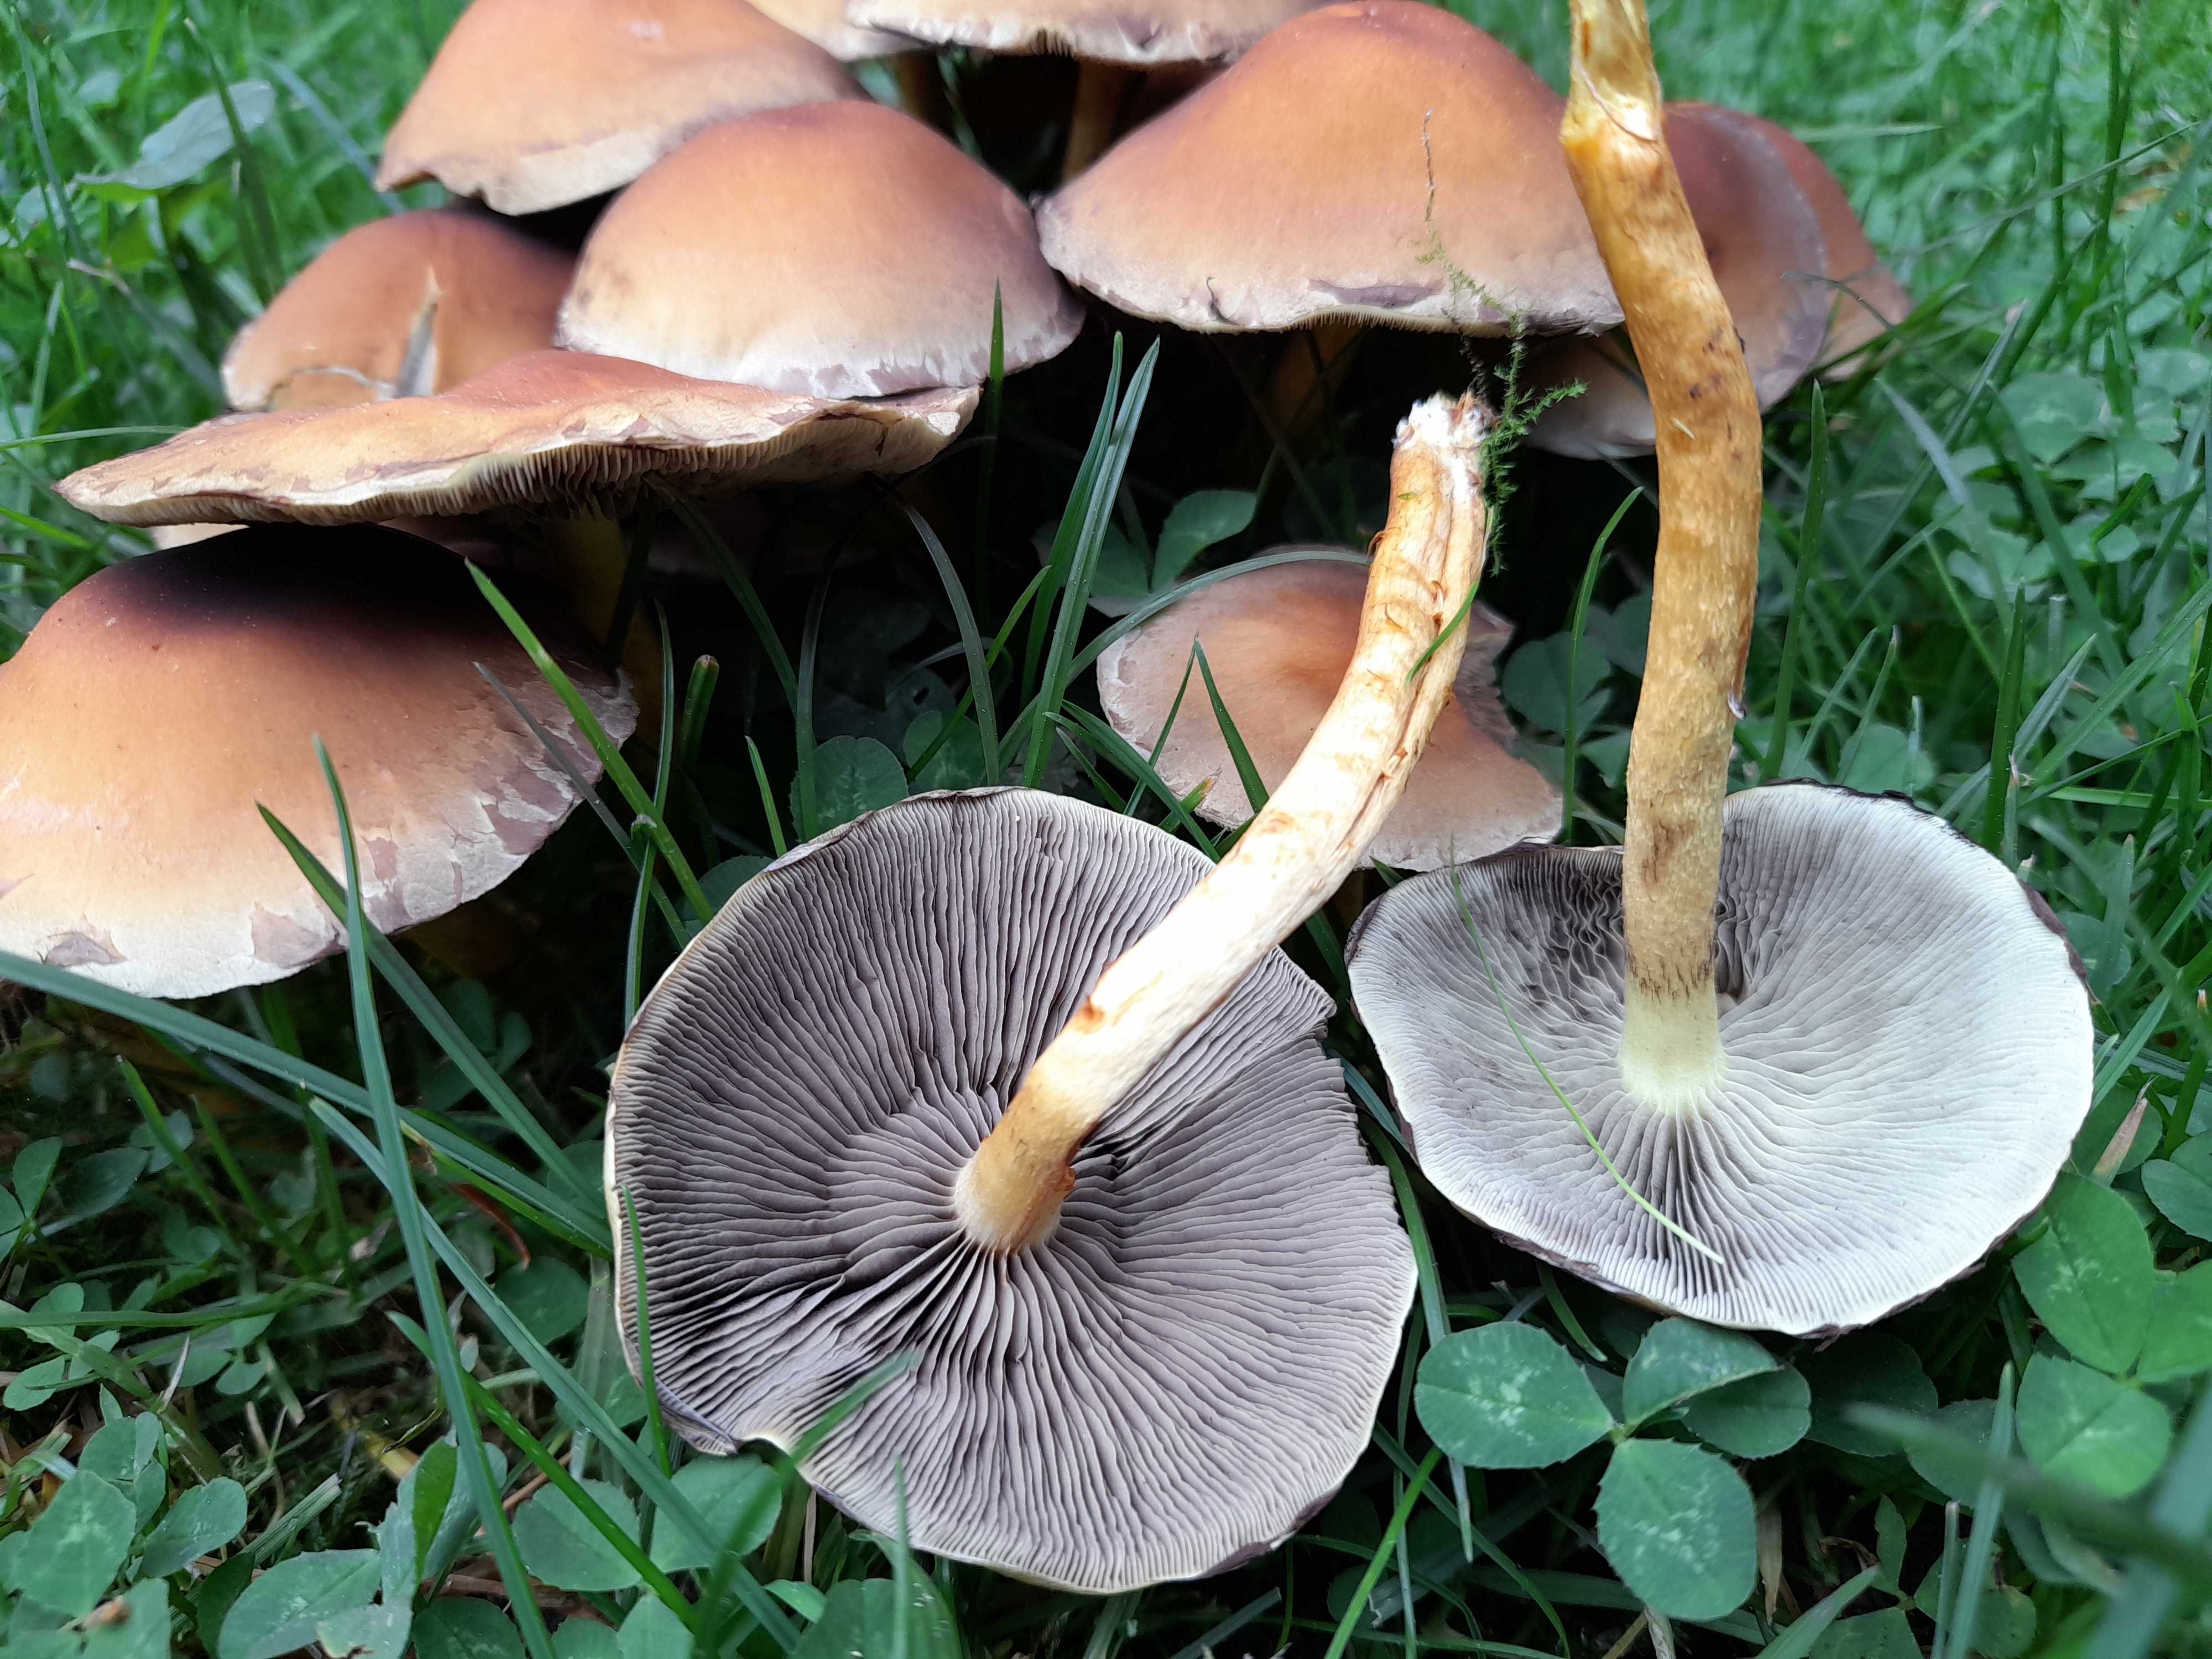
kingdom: Fungi
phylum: Basidiomycota
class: Agaricomycetes
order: Agaricales
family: Strophariaceae
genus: Hypholoma
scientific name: Hypholoma fasciculare
